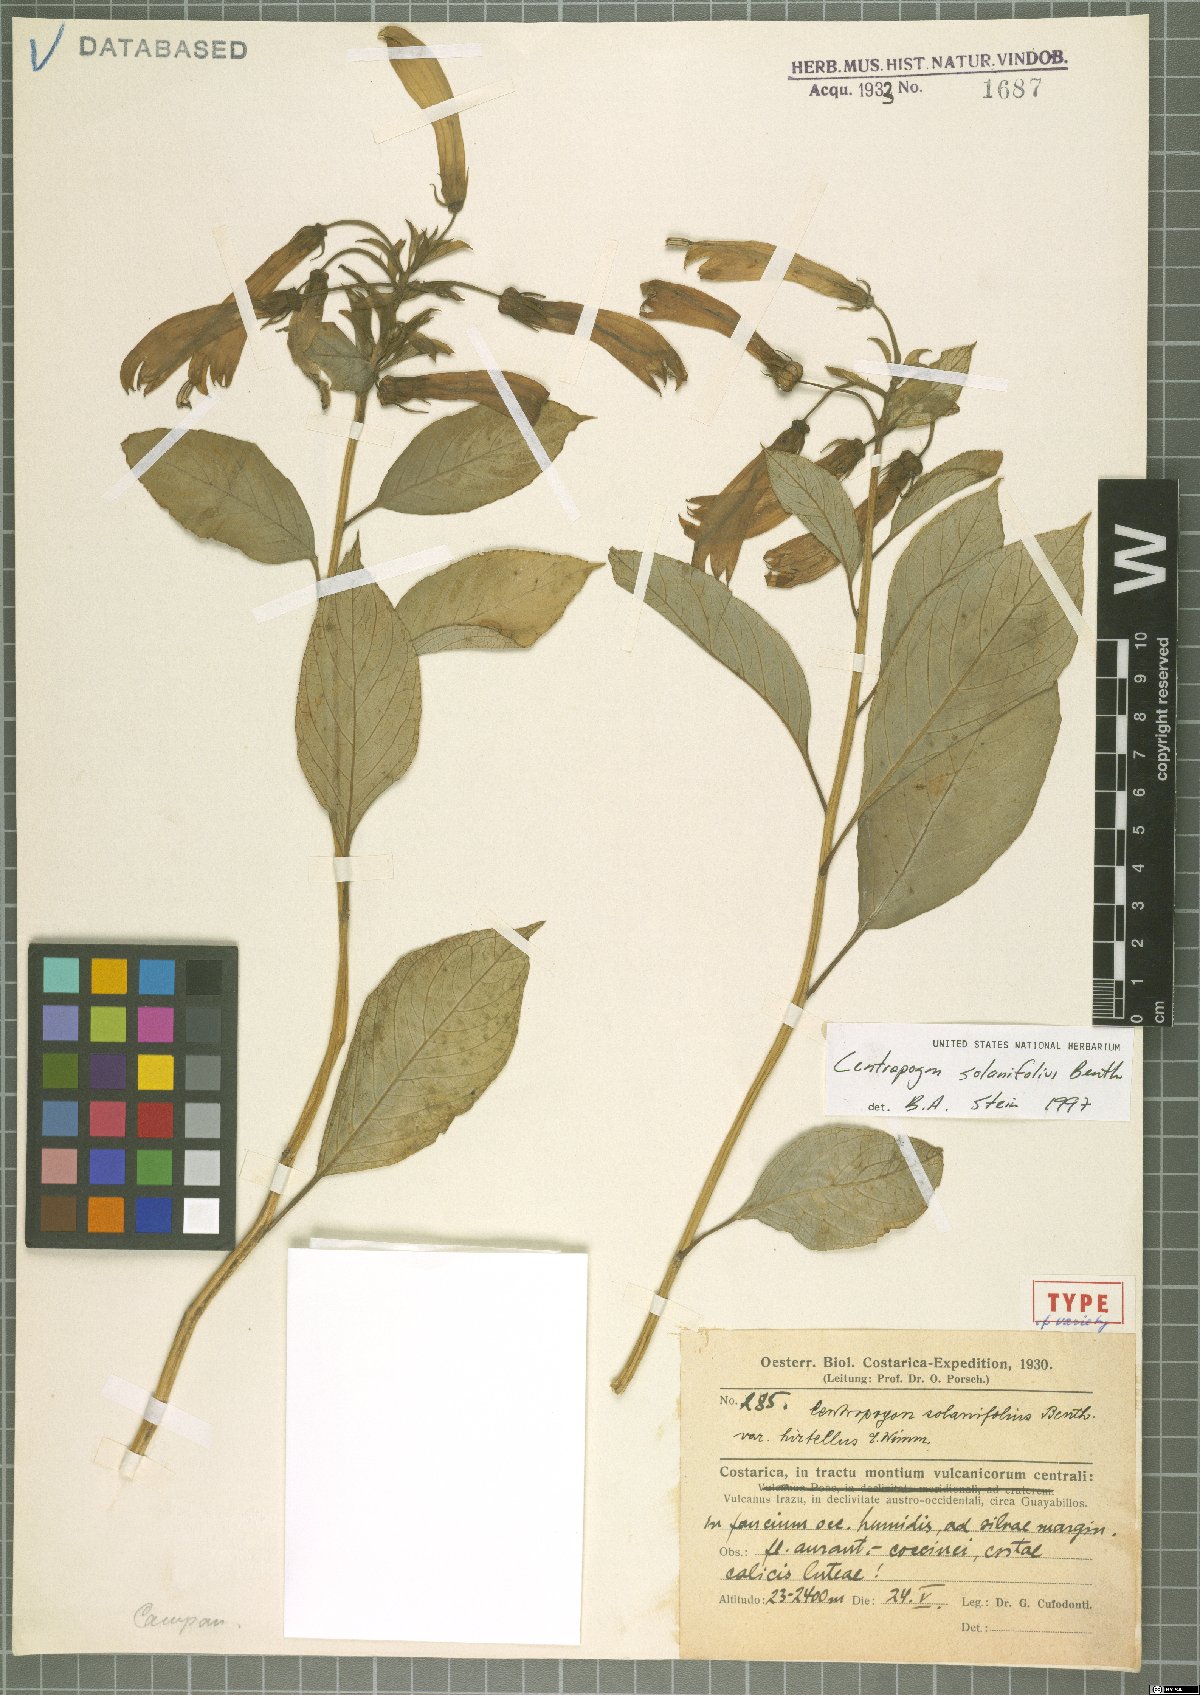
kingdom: Plantae
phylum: Tracheophyta
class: Magnoliopsida
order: Asterales
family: Campanulaceae
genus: Centropogon
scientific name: Centropogon solanifolius
